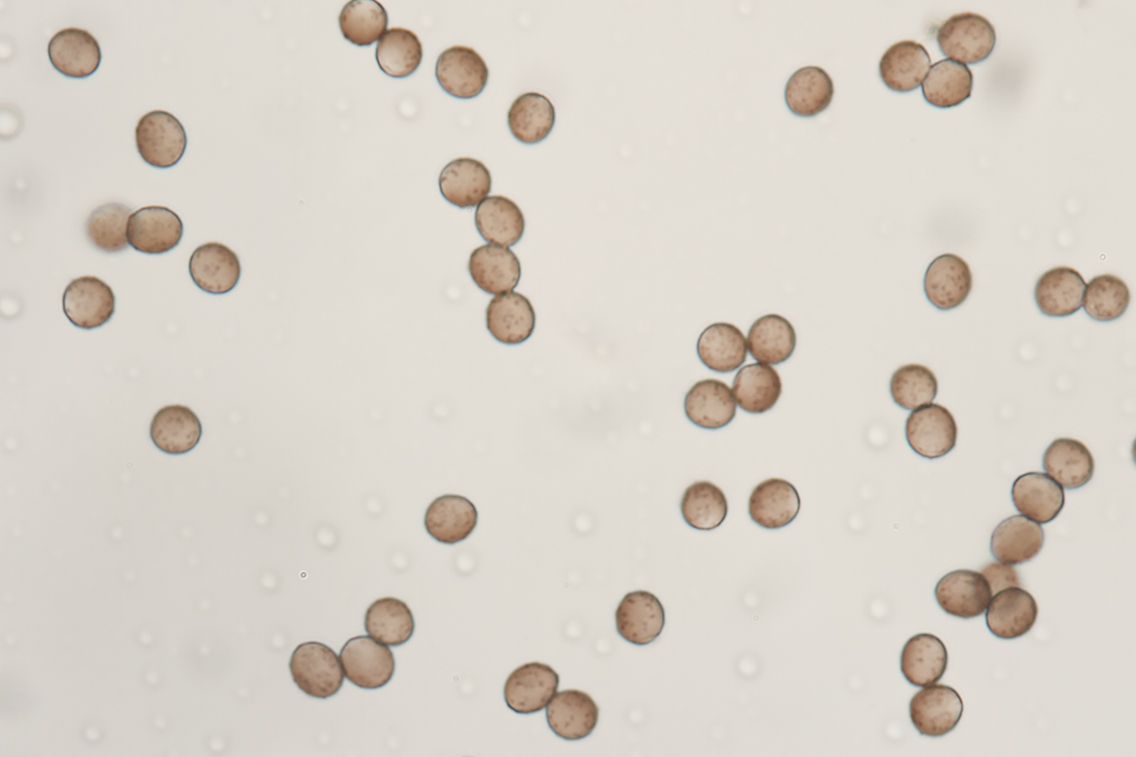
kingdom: Protozoa
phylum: Mycetozoa
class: Myxomycetes
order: Physarales
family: Physaraceae
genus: Fuligo
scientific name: Fuligo luteonitens
